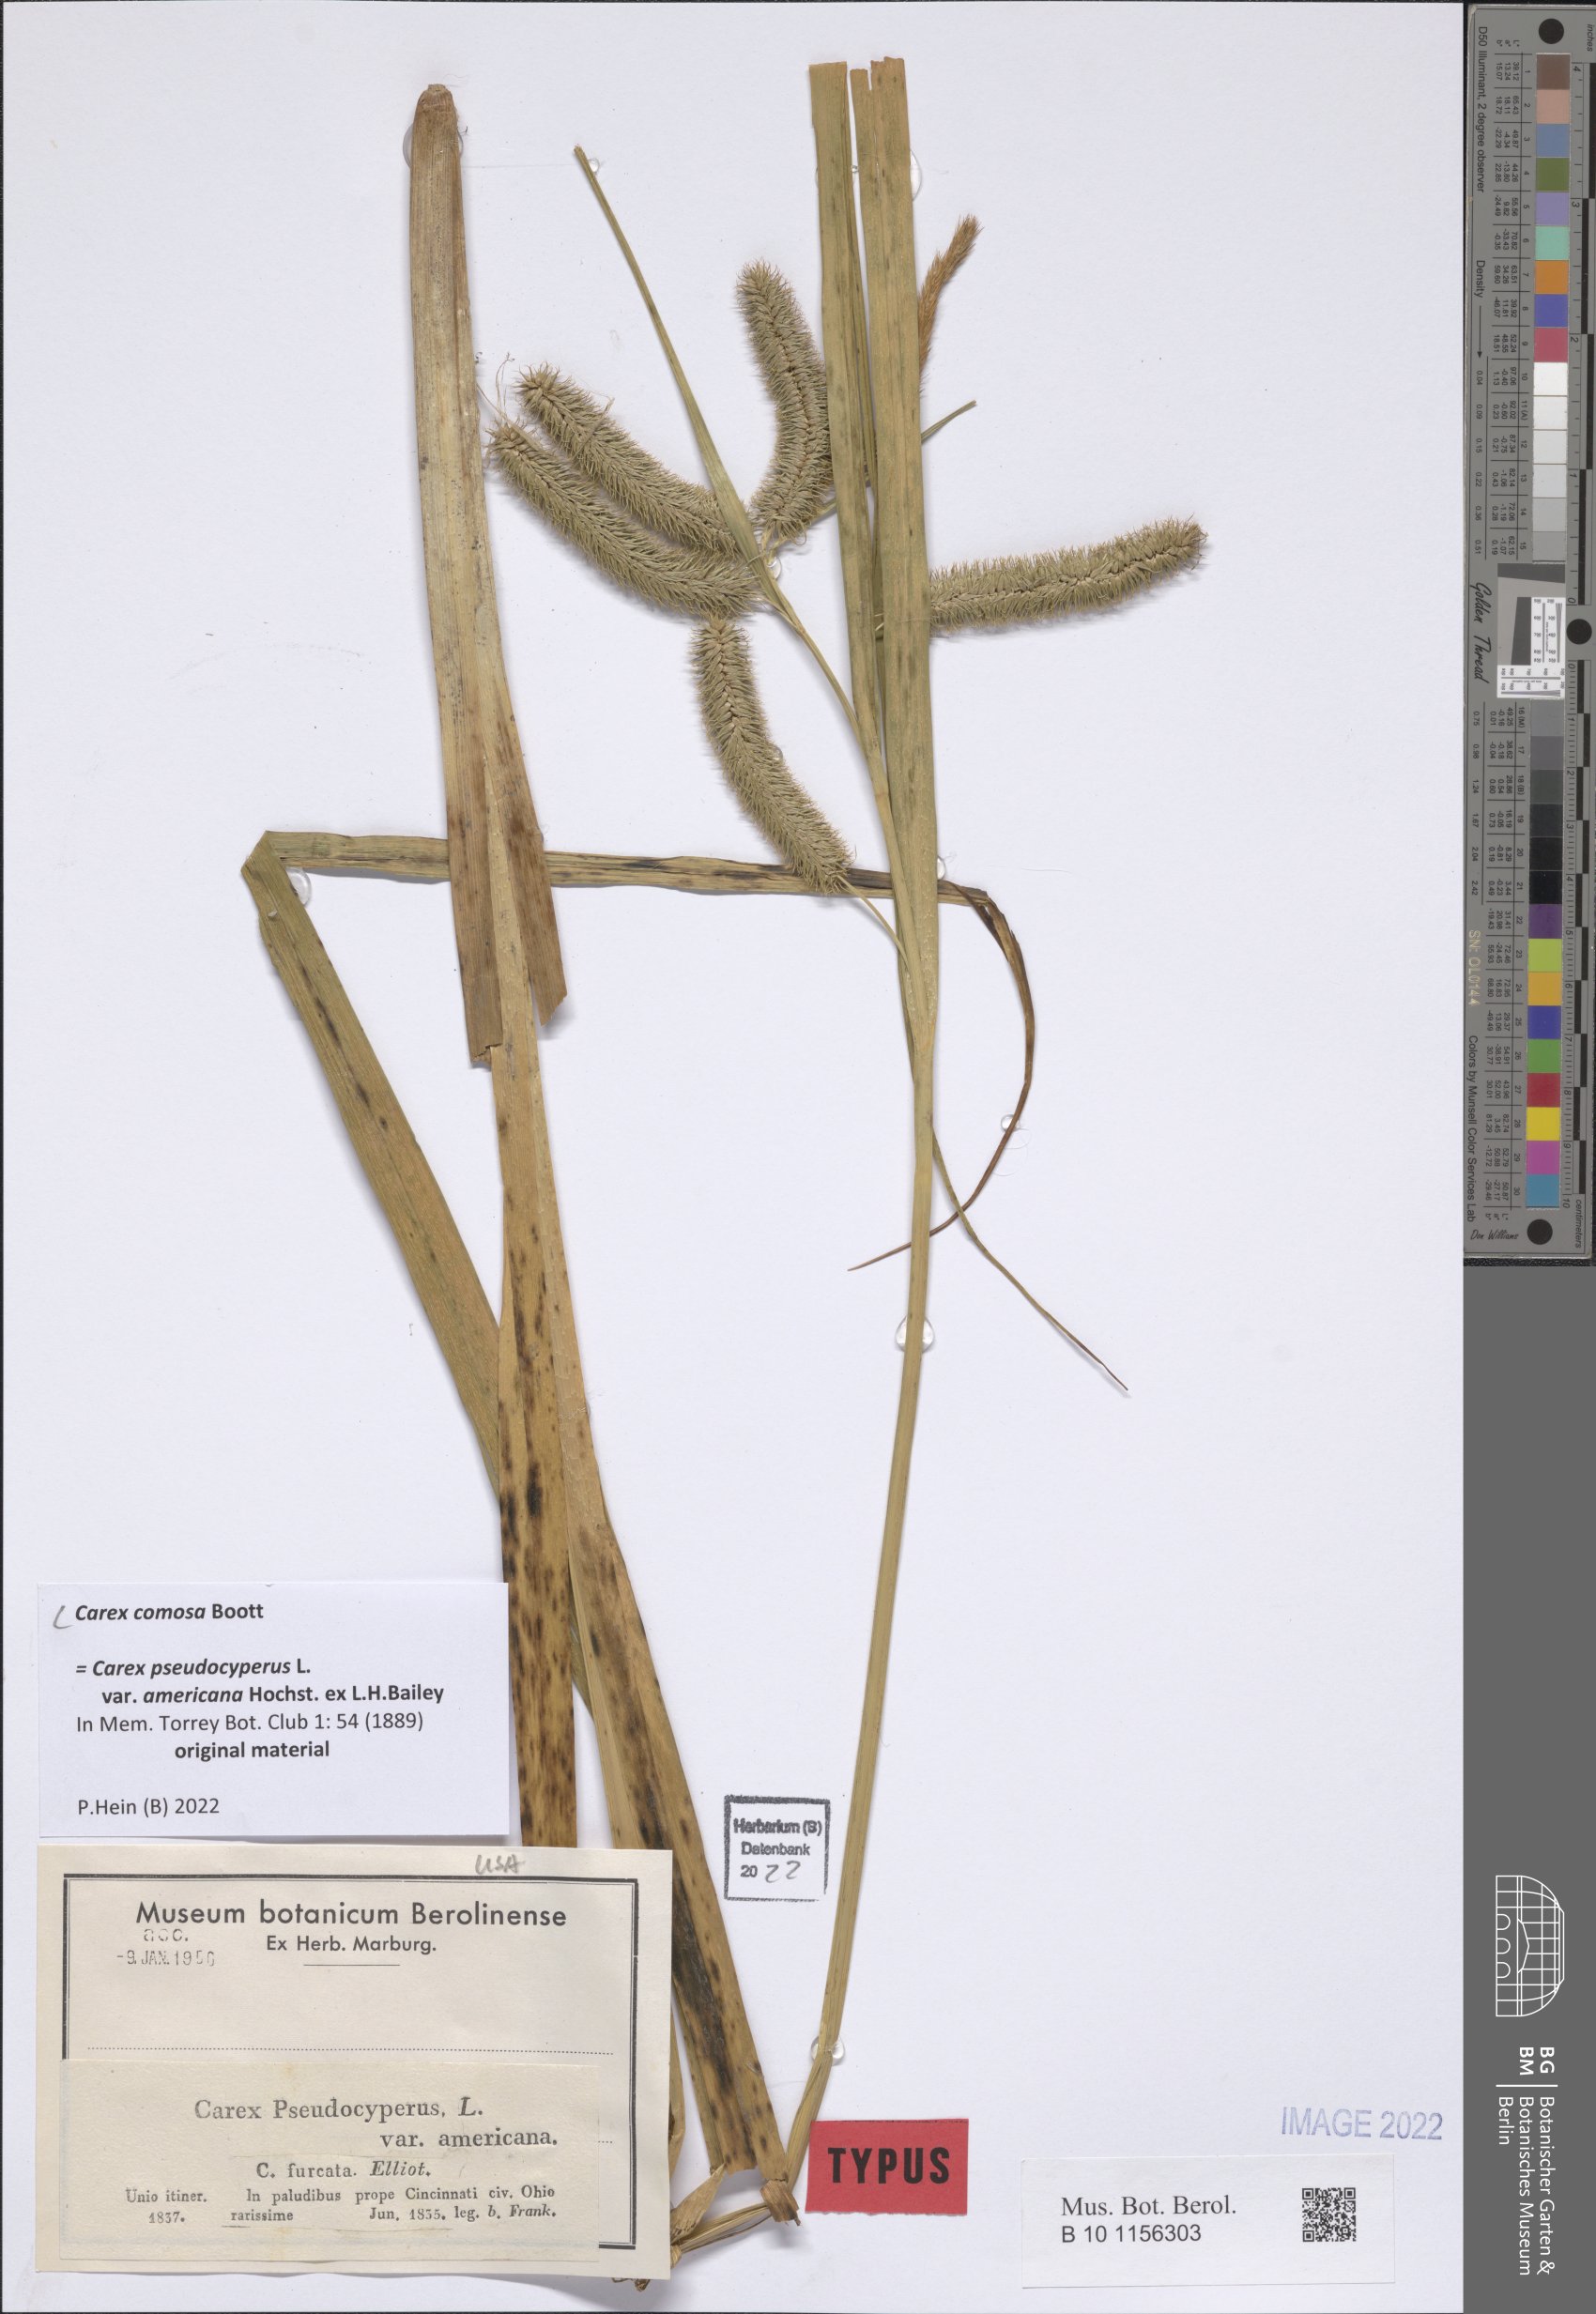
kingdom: Plantae
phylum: Tracheophyta
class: Liliopsida
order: Poales
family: Cyperaceae
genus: Carex
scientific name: Carex comosa
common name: Bristly sedge
